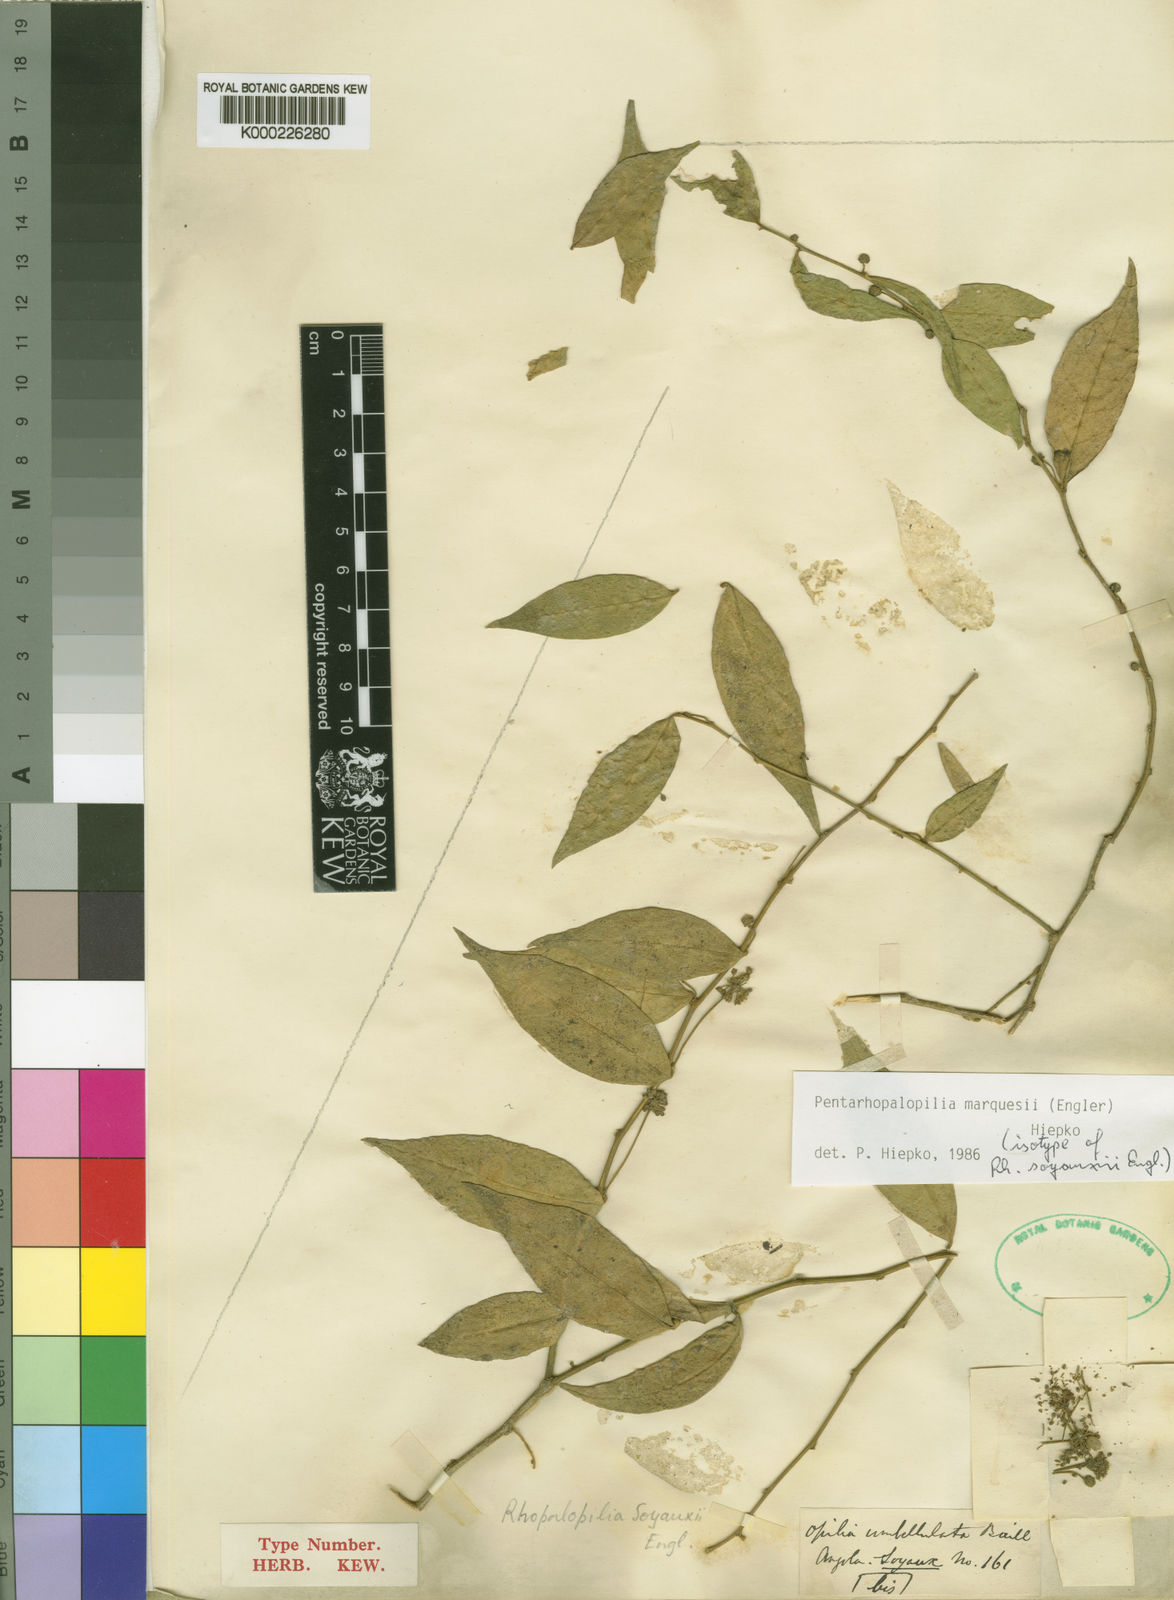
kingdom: Plantae
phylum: Tracheophyta
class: Magnoliopsida
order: Santalales
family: Opiliaceae
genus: Pentarhopalopilia
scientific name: Pentarhopalopilia marquesii
